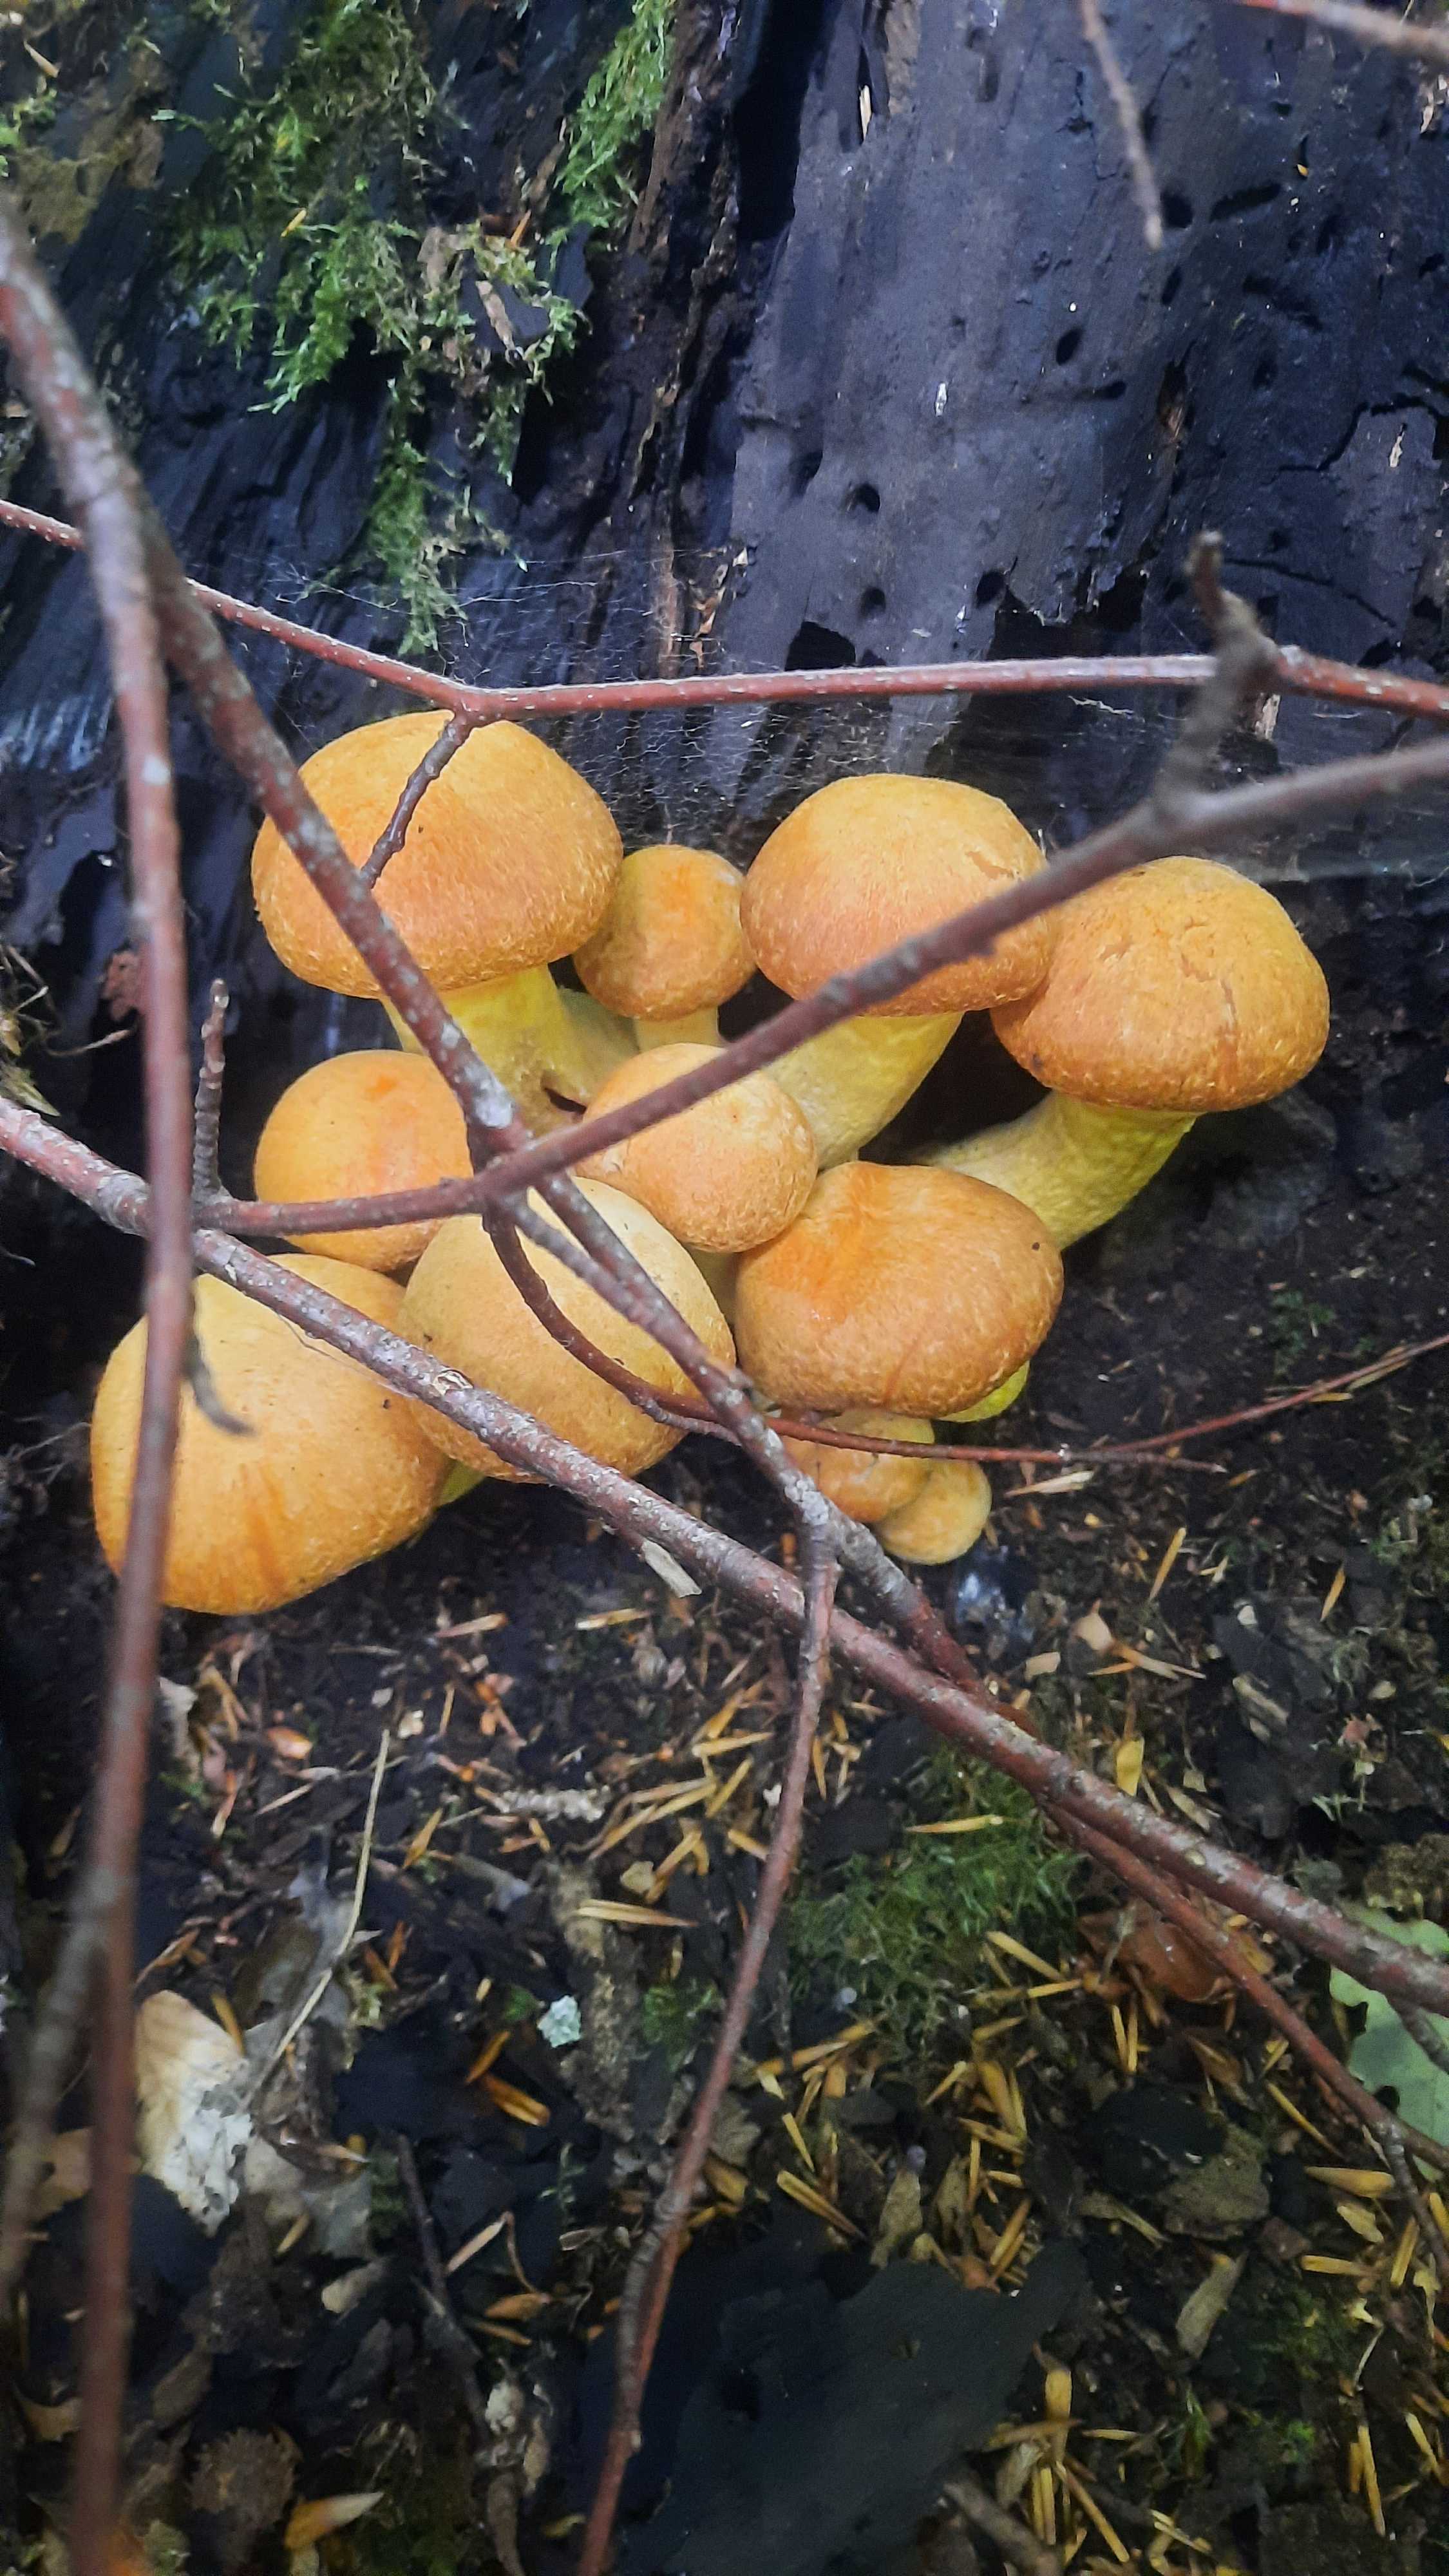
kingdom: Fungi
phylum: Basidiomycota
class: Agaricomycetes
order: Agaricales
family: Hymenogastraceae
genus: Gymnopilus
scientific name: Gymnopilus spectabilis
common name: fibret flammehat
